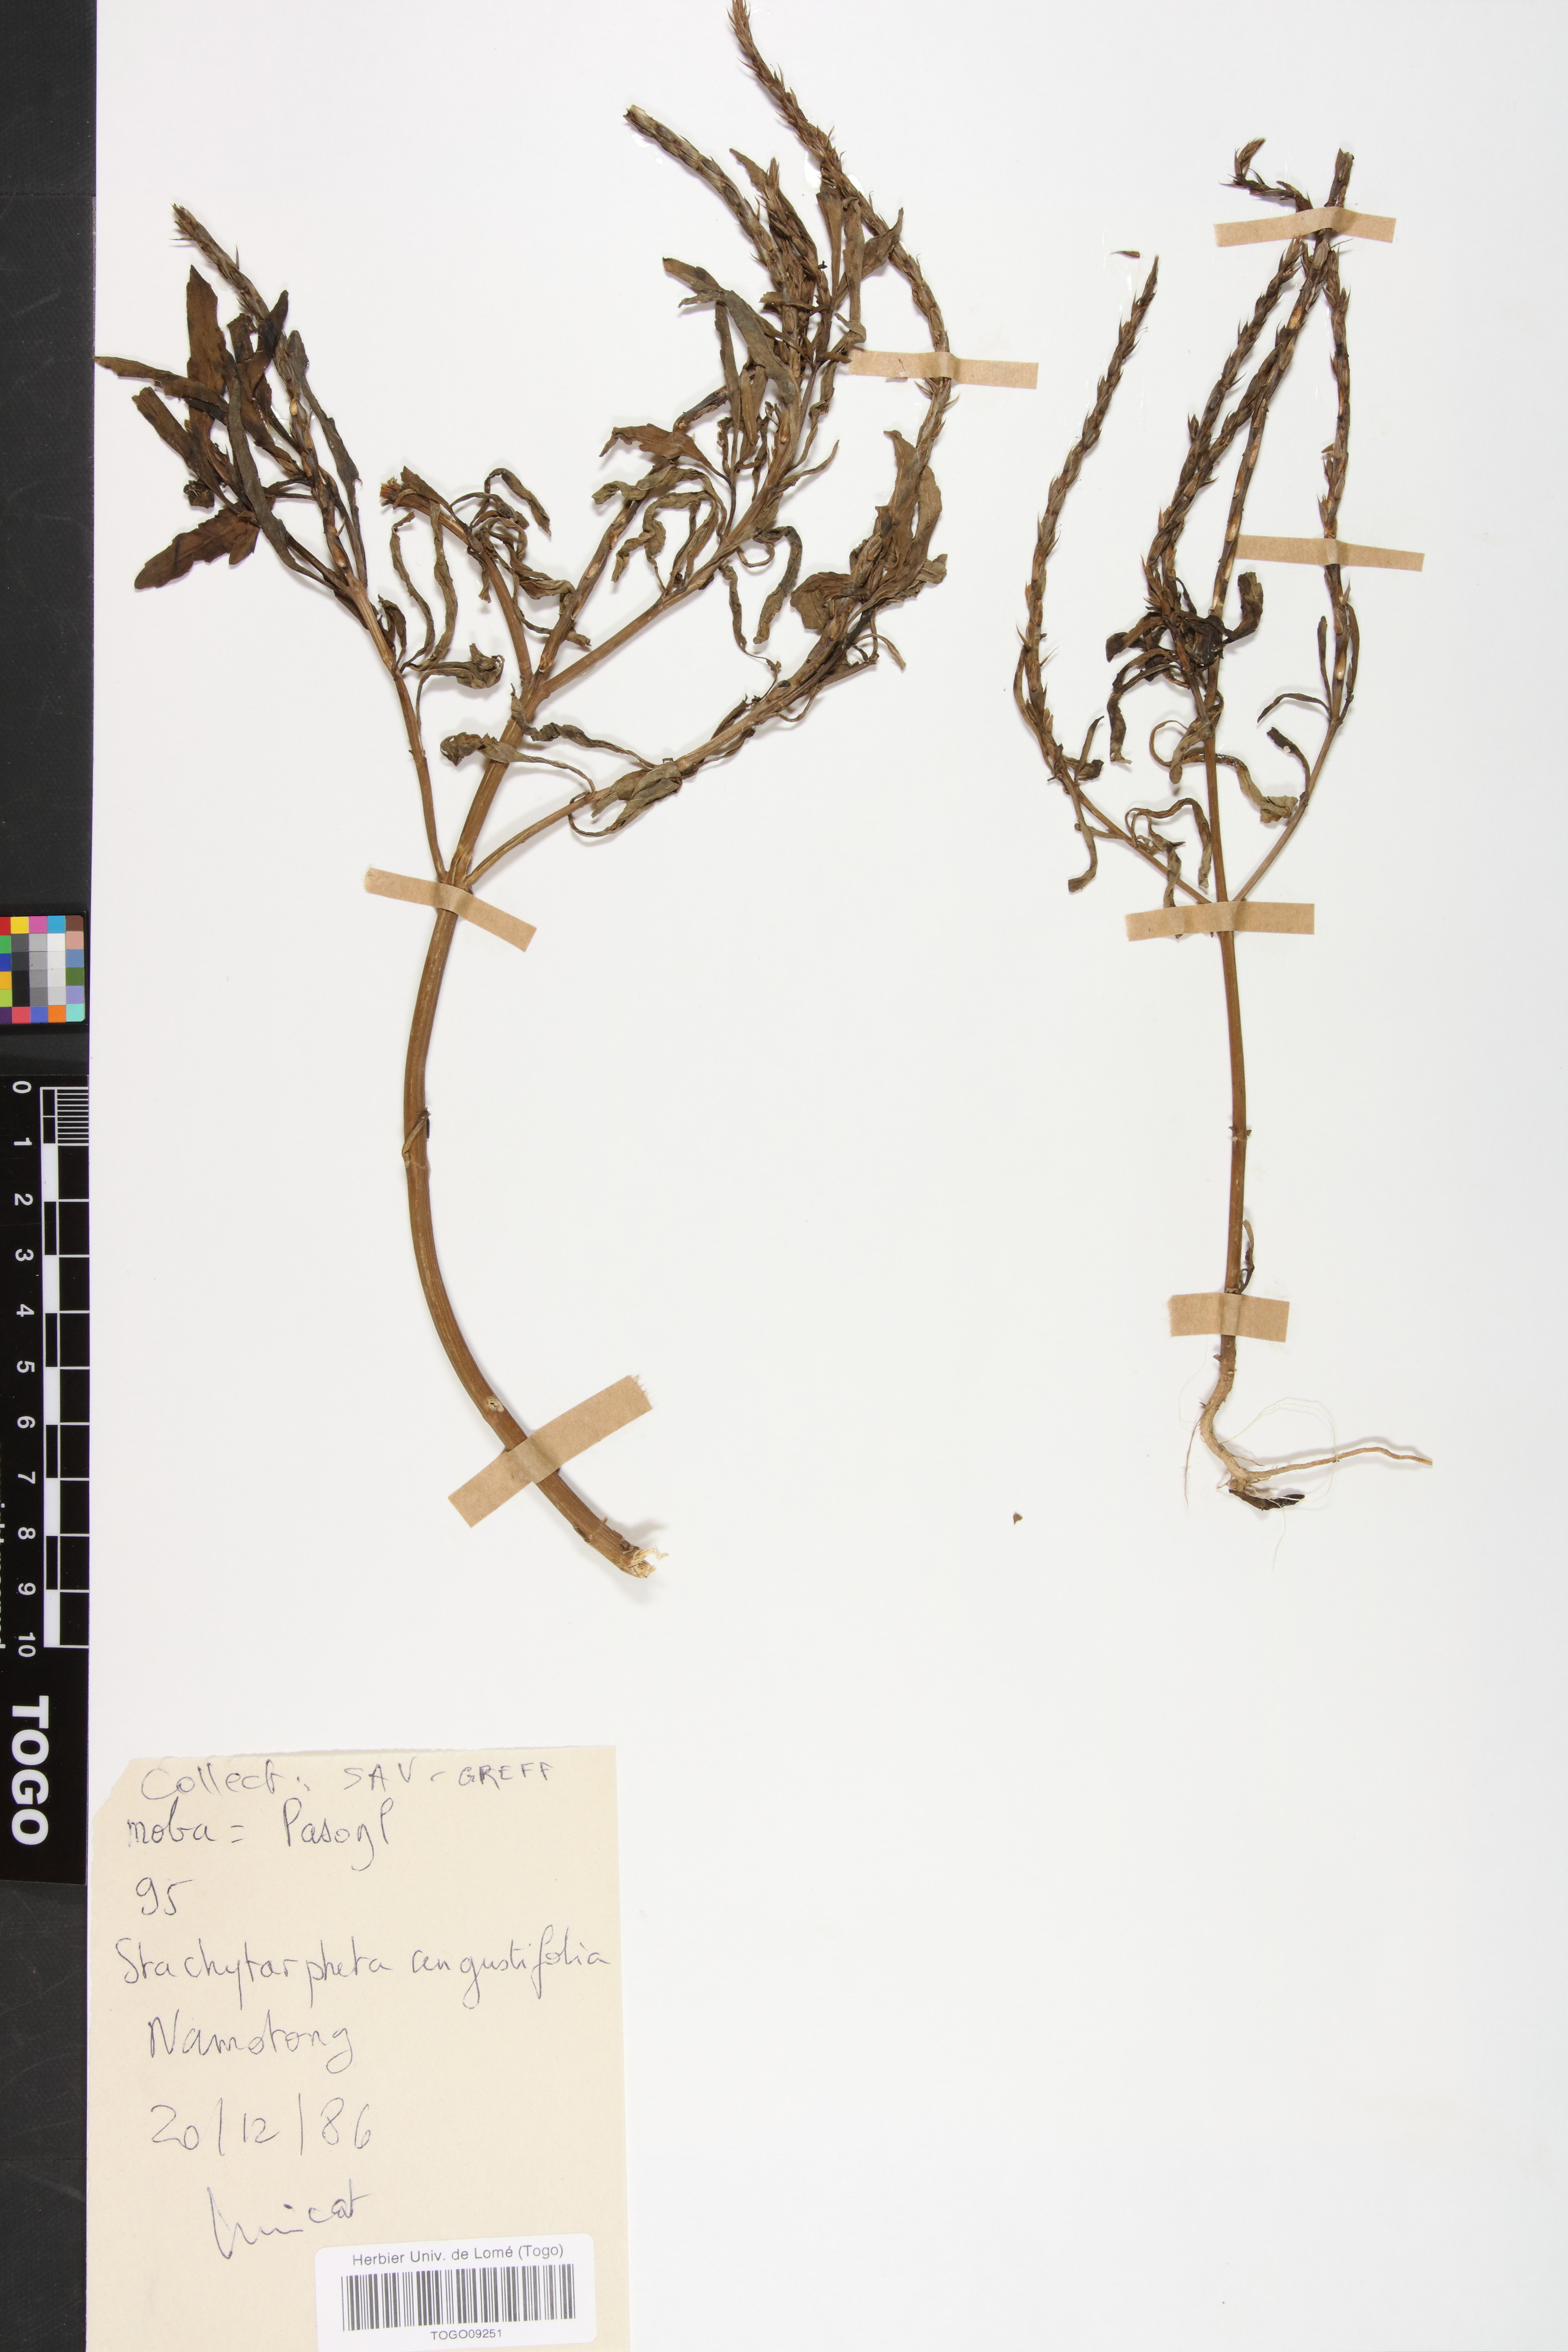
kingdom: Plantae
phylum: Tracheophyta
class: Magnoliopsida
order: Lamiales
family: Verbenaceae
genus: Stachytarpheta
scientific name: Stachytarpheta indica
